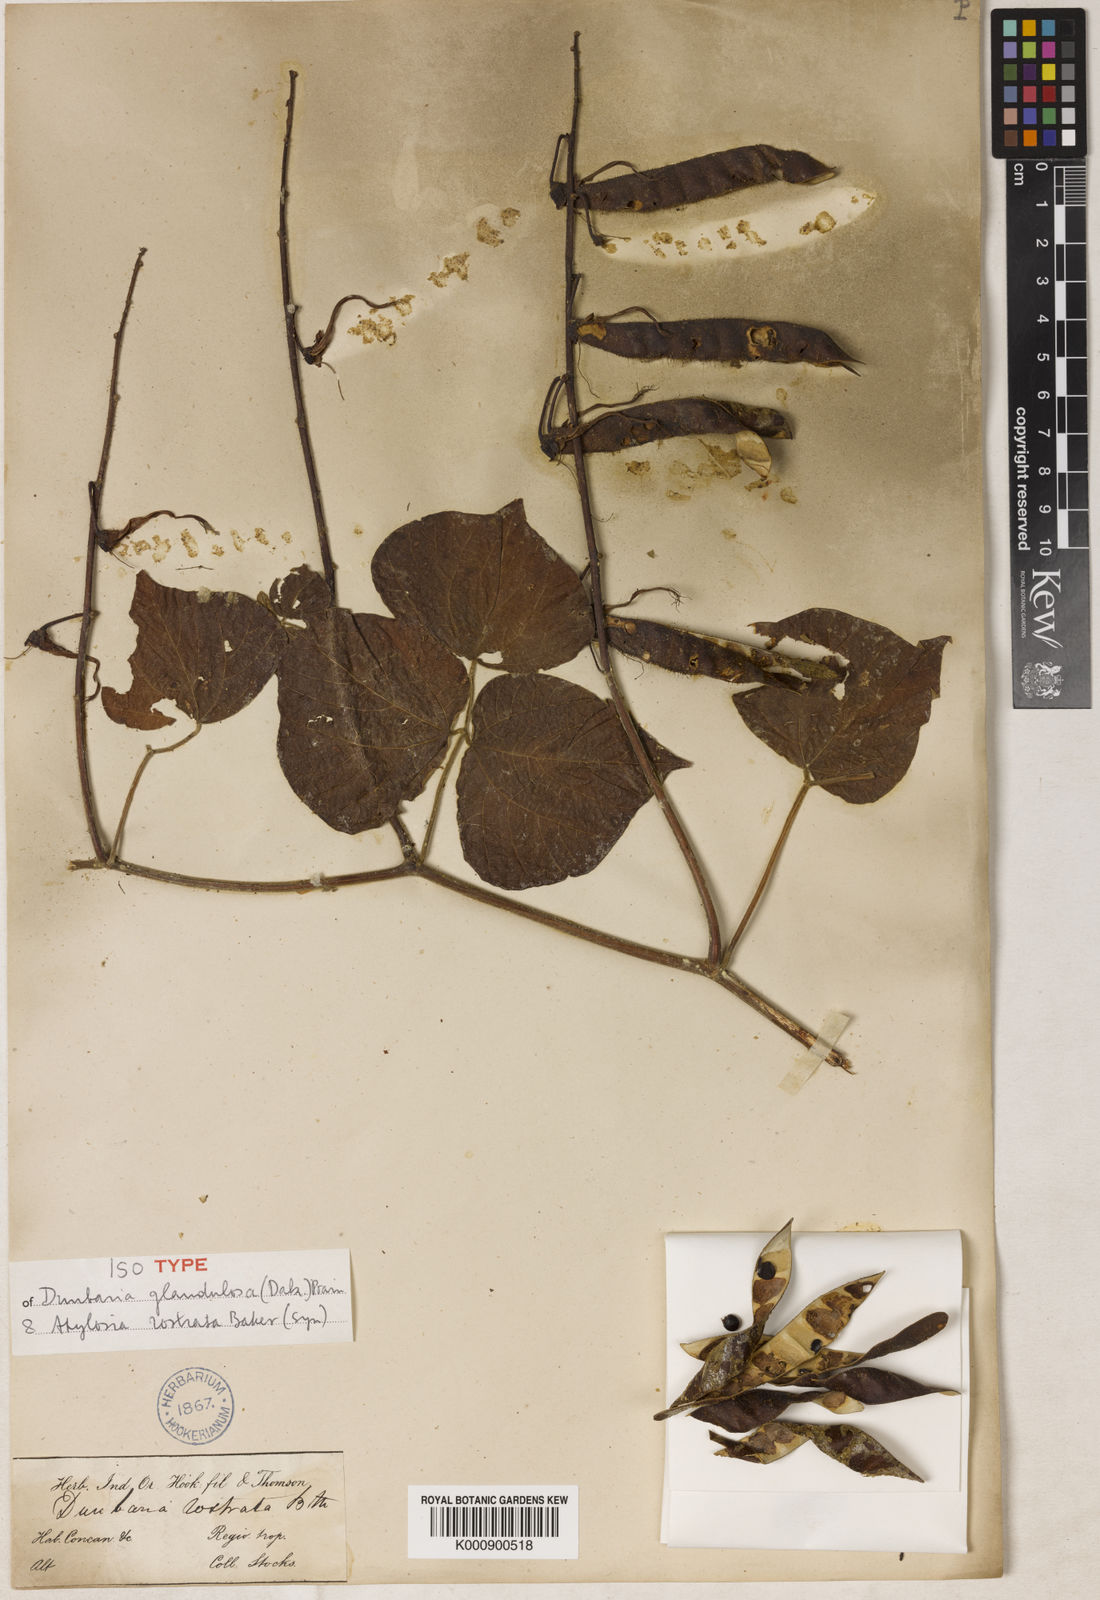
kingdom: Plantae
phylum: Tracheophyta
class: Magnoliopsida
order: Fabales
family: Fabaceae
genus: Dunbaria
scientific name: Dunbaria glandulosa
